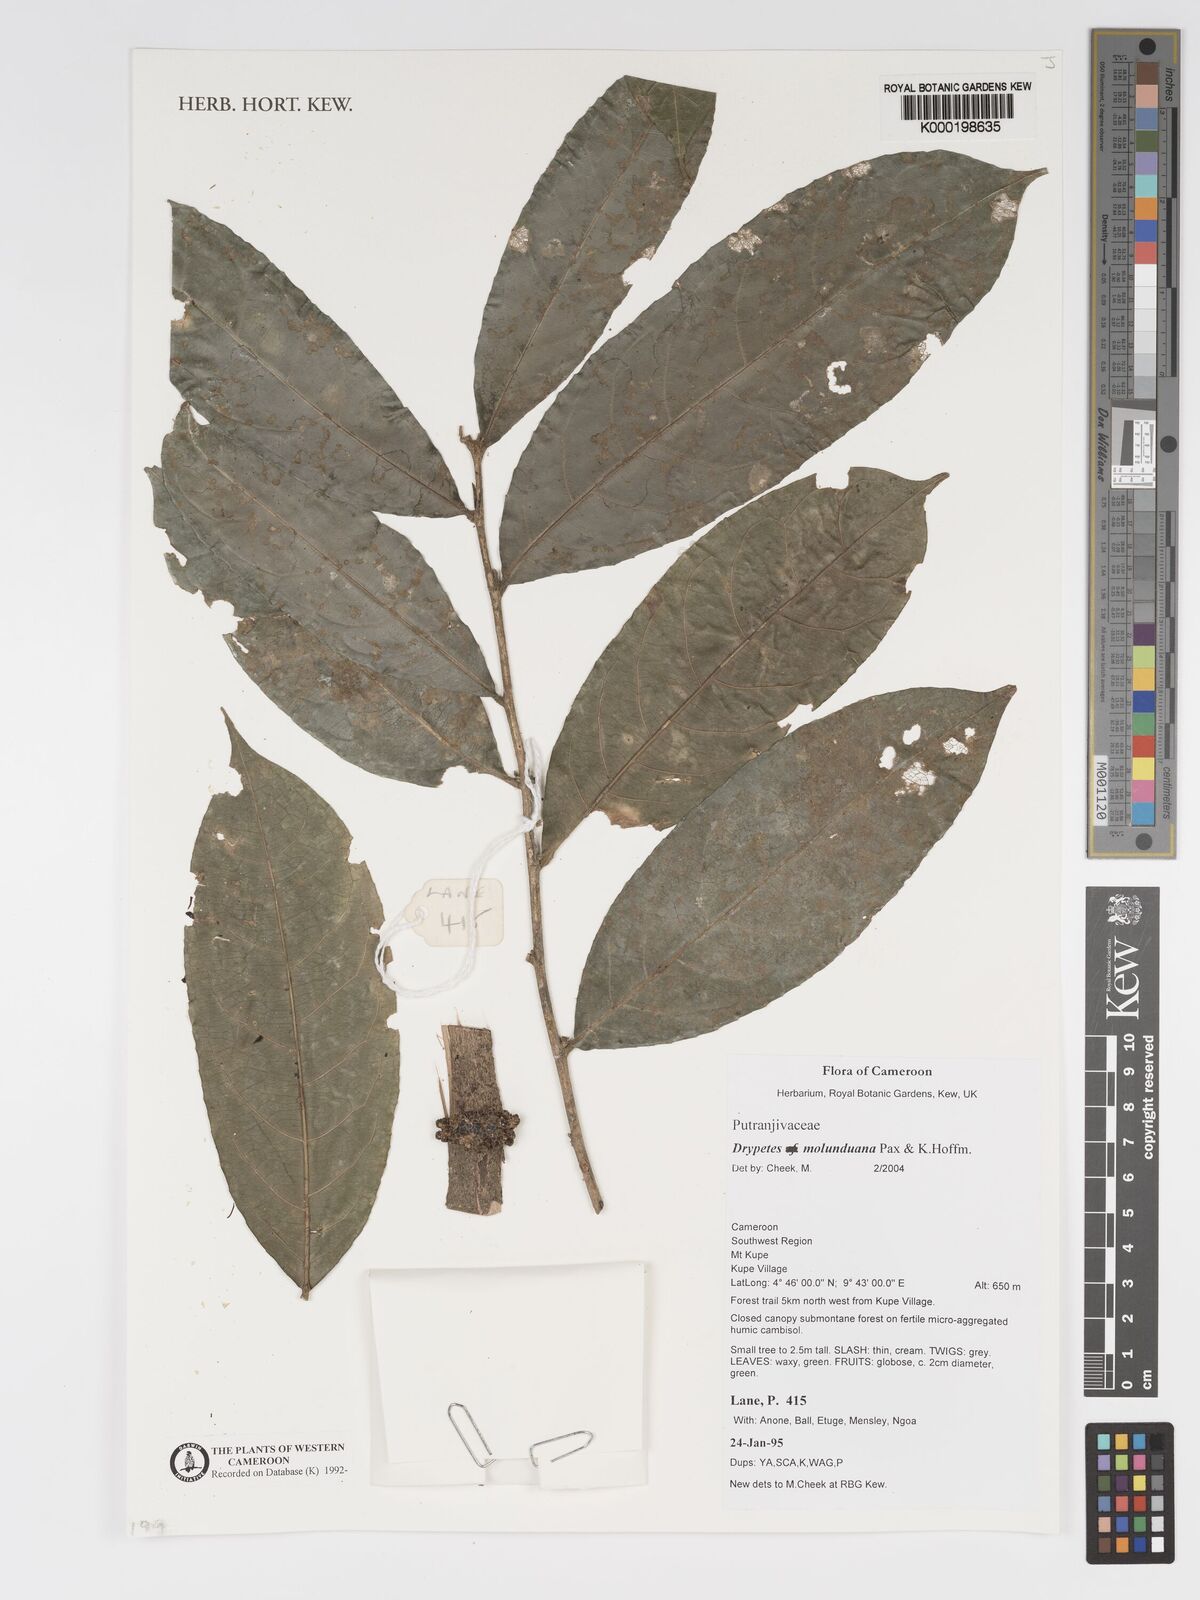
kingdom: Plantae
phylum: Tracheophyta
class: Magnoliopsida
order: Malpighiales
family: Putranjivaceae
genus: Drypetes
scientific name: Drypetes molunduana
